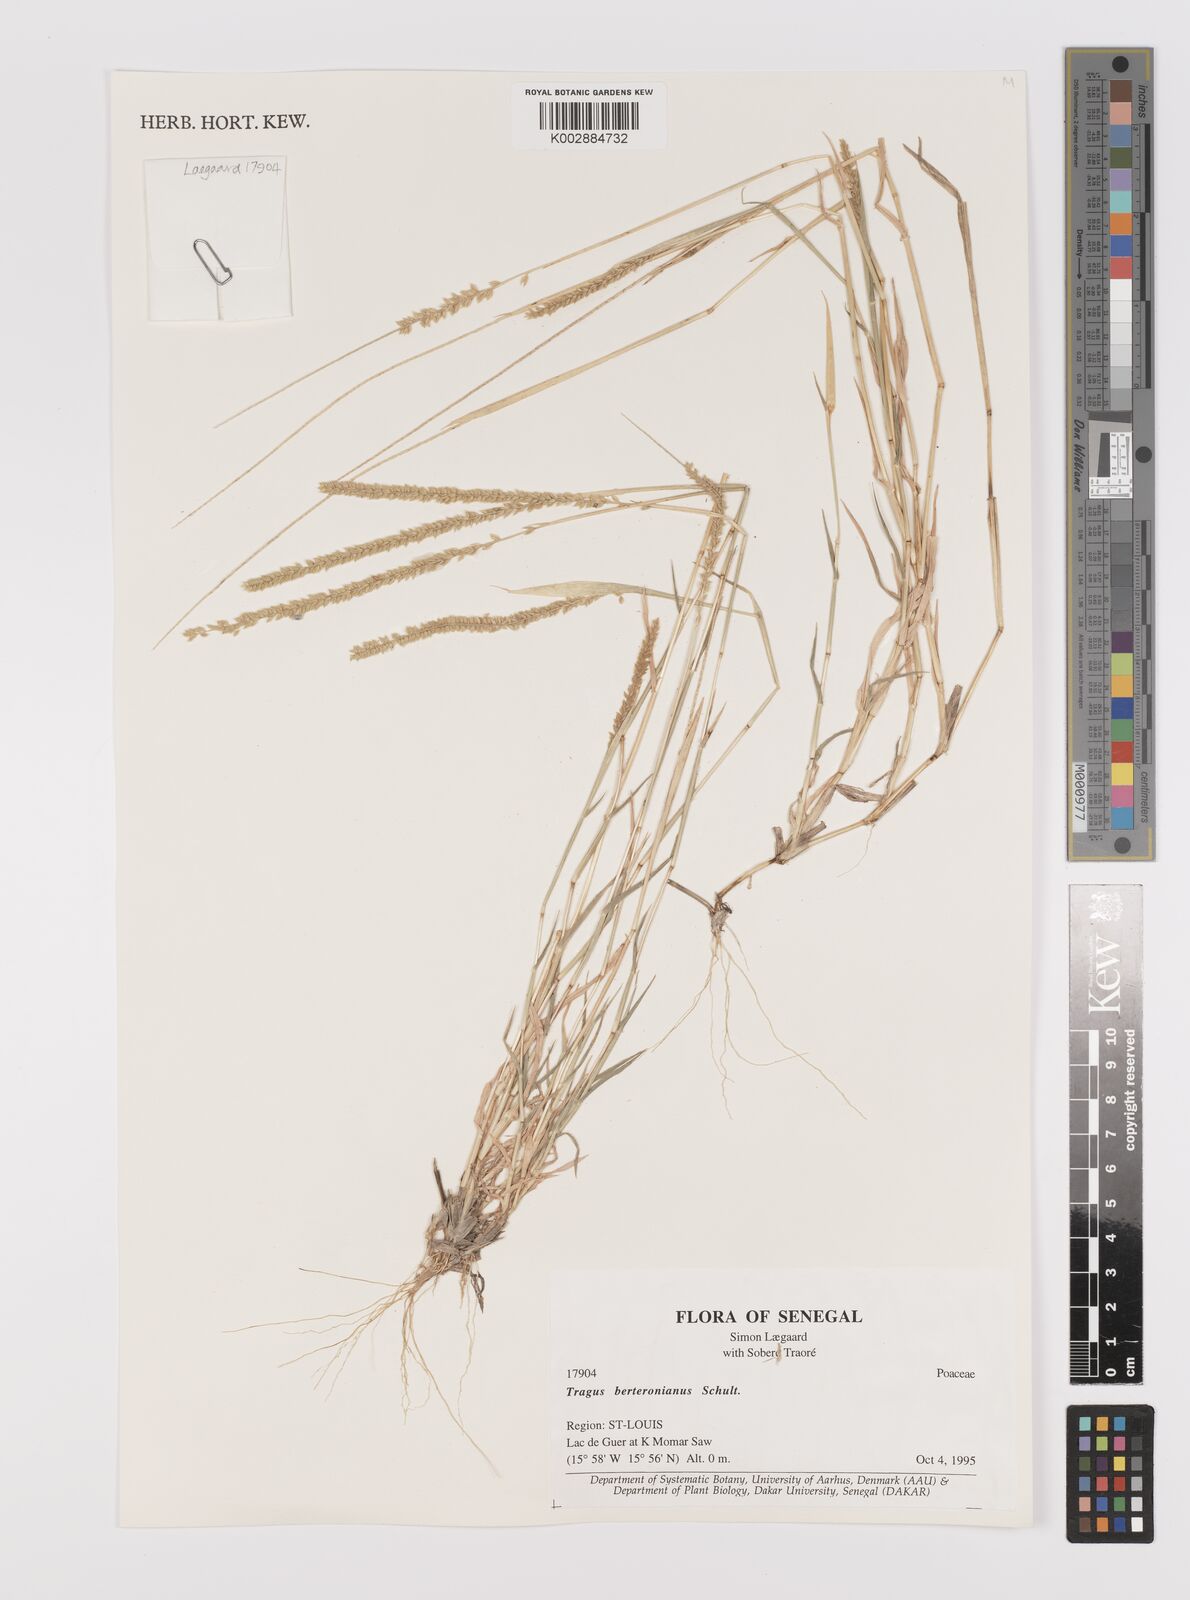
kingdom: Plantae
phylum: Tracheophyta
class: Liliopsida
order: Poales
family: Poaceae
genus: Tragus
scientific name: Tragus berteronianus
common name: African bur-grass
